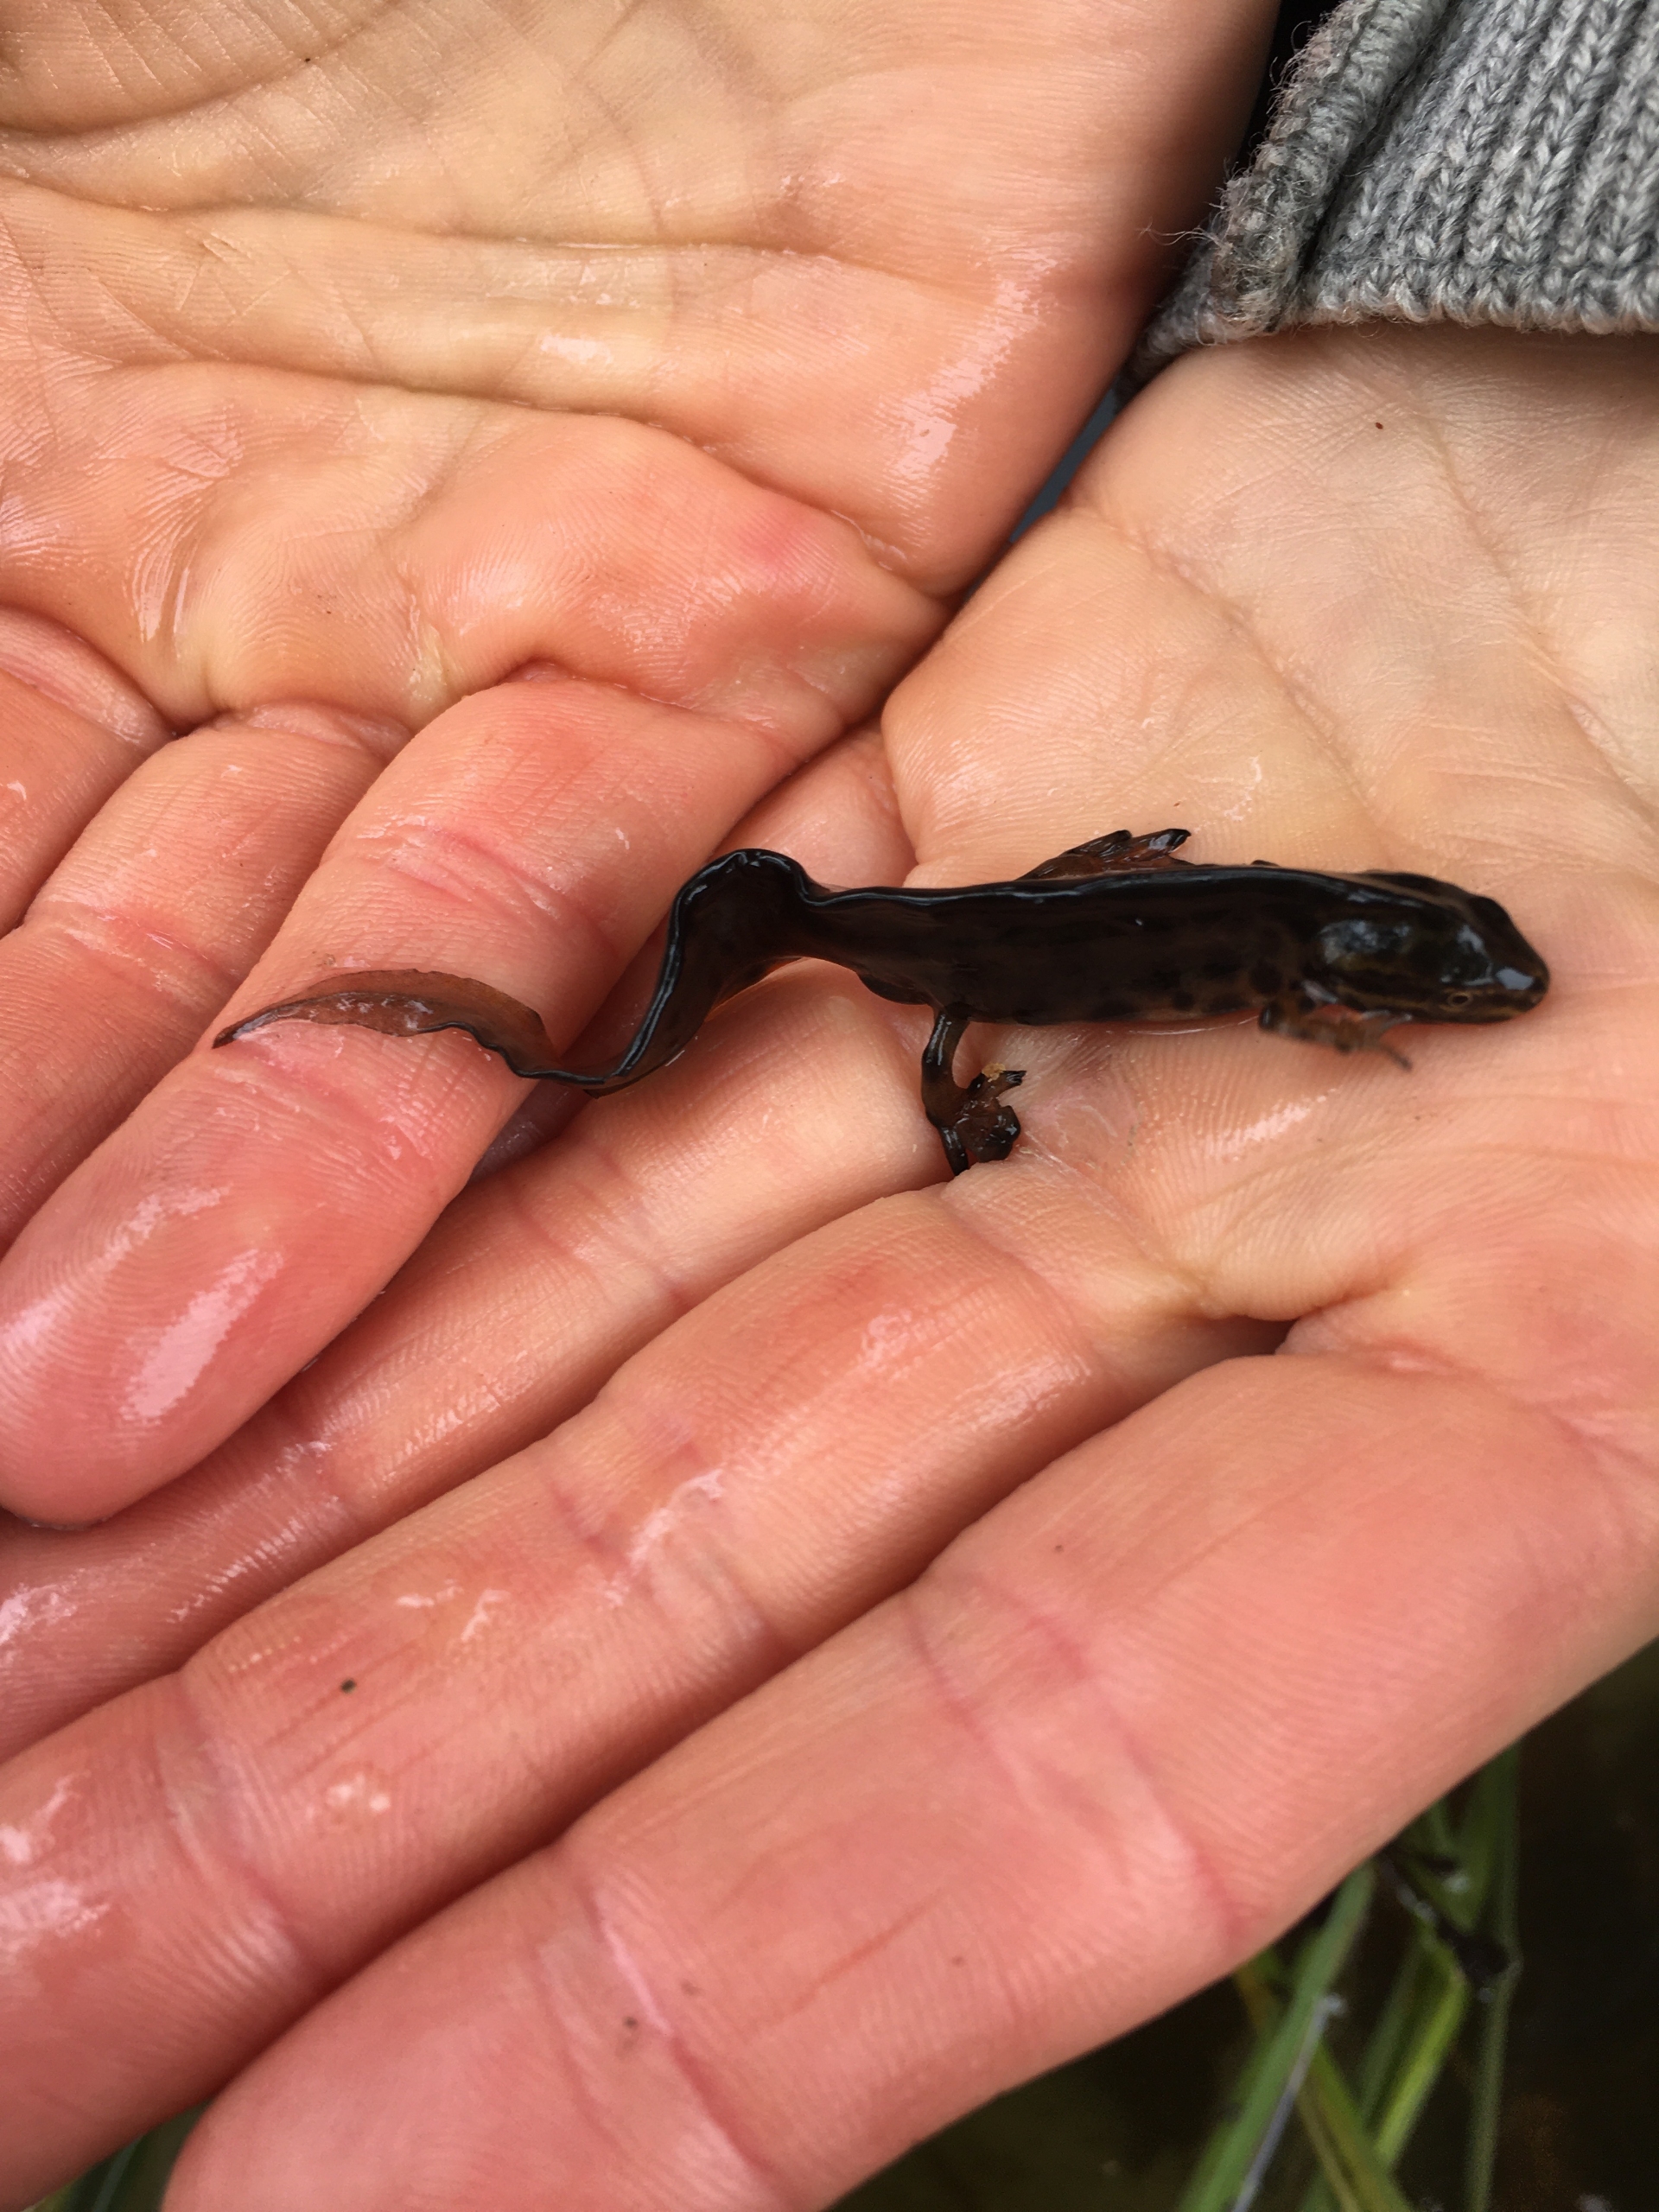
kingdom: Animalia
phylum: Chordata
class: Amphibia
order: Caudata
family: Salamandridae
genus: Lissotriton
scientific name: Lissotriton vulgaris
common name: Lille vandsalamander
